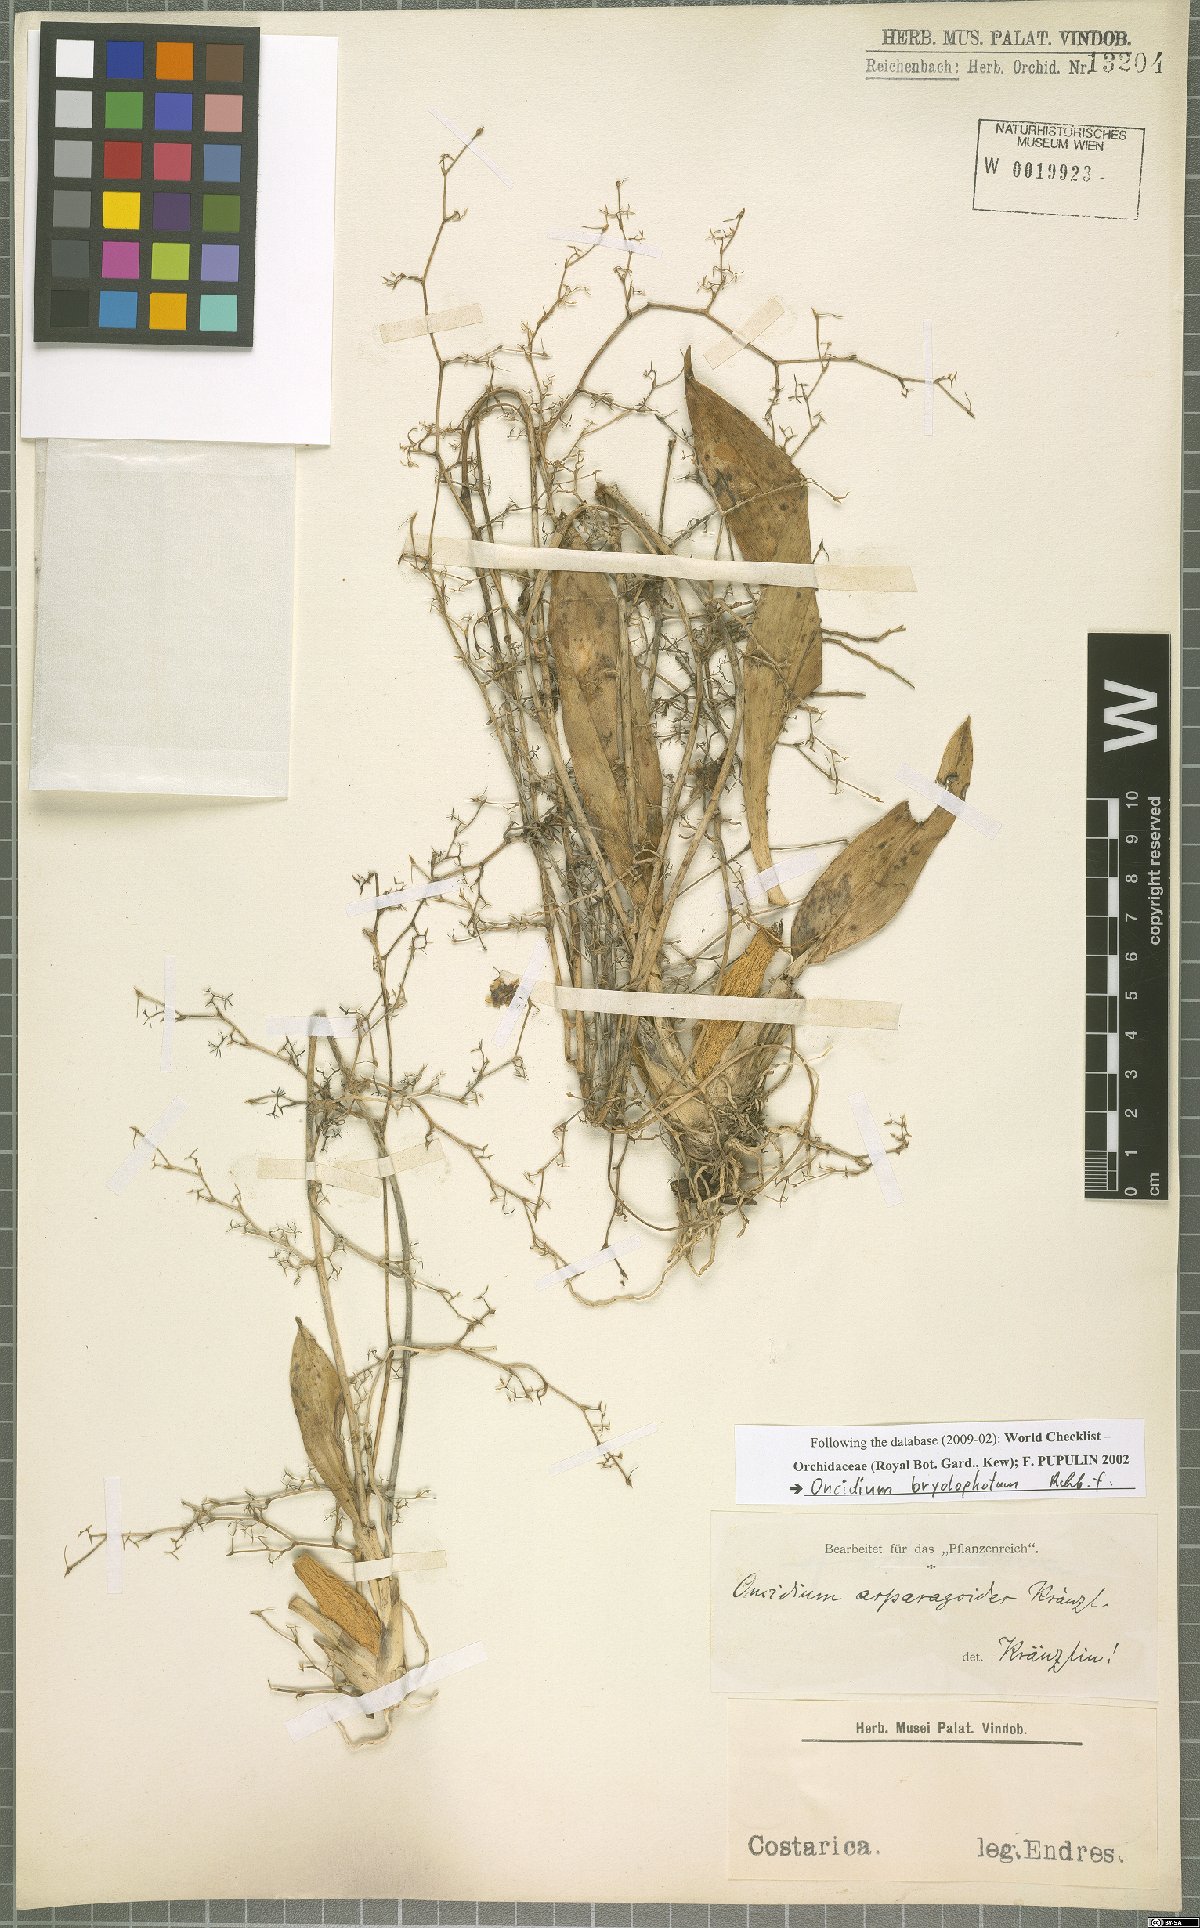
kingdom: Plantae
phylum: Tracheophyta
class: Liliopsida
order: Asparagales
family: Orchidaceae
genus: Oncidium
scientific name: Oncidium bryolophotum
